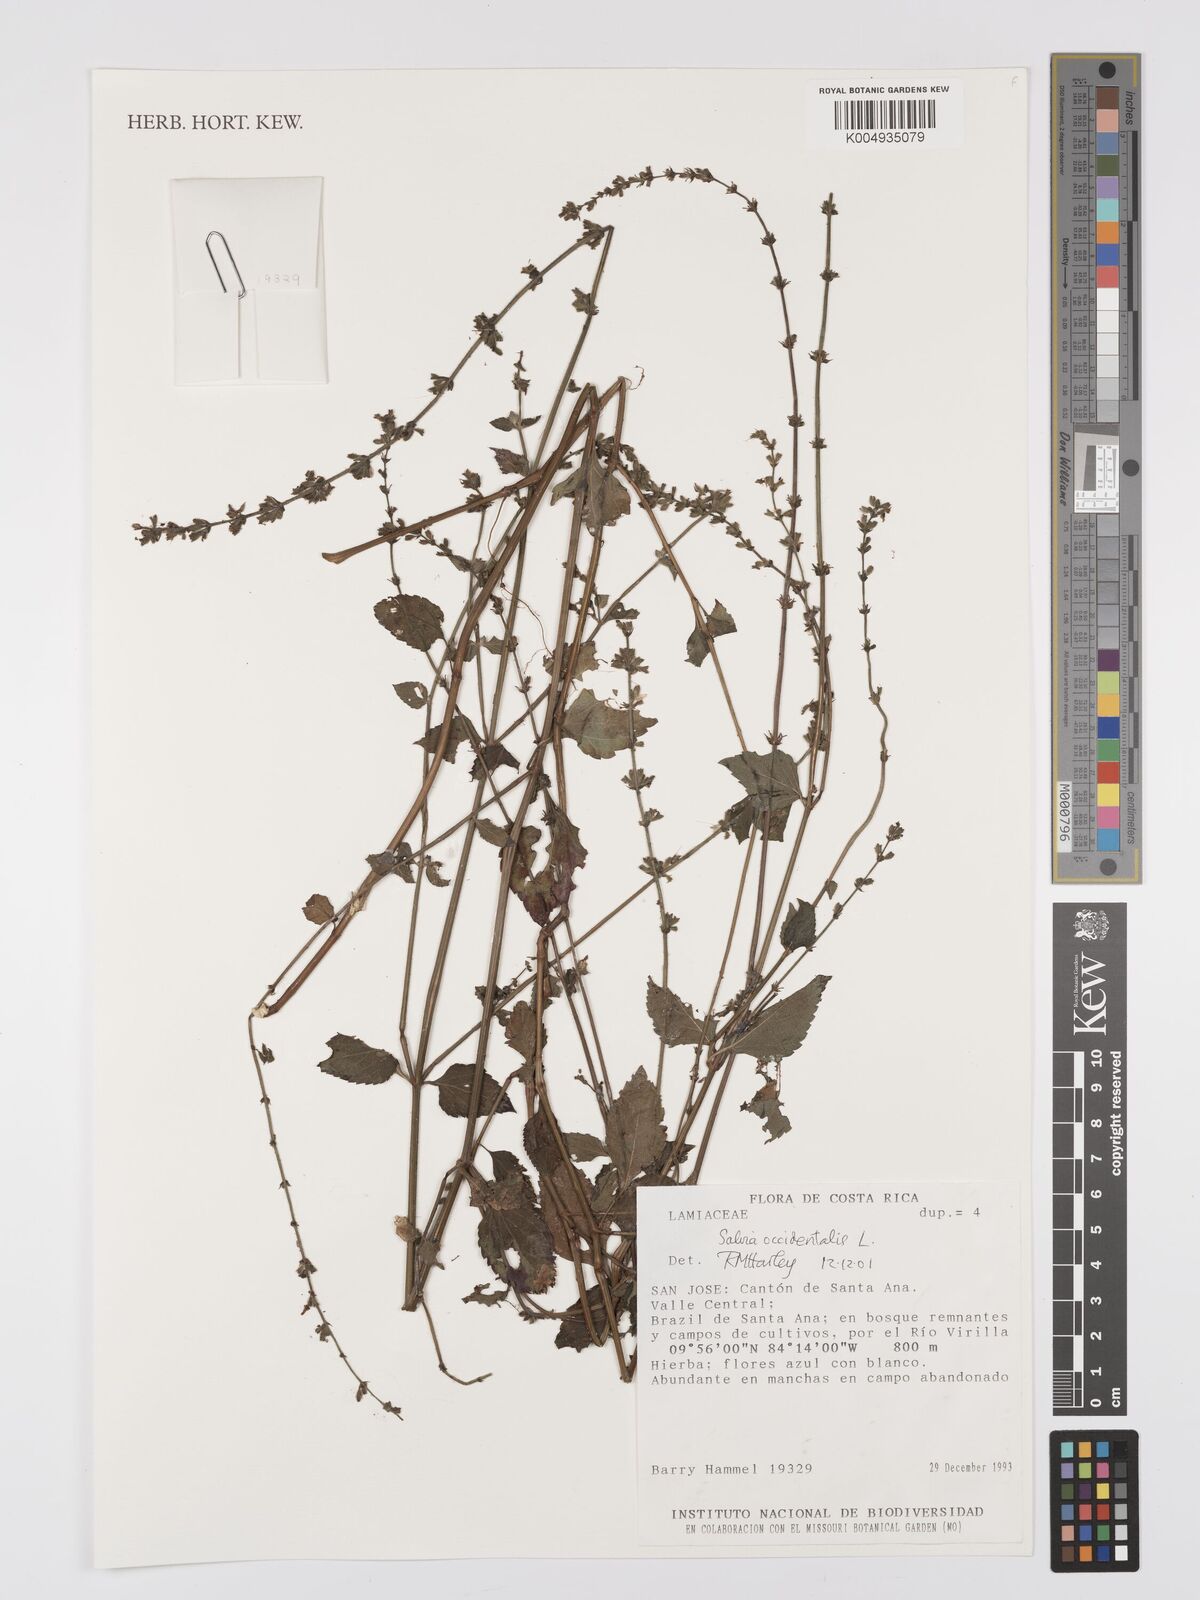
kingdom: Plantae
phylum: Tracheophyta
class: Magnoliopsida
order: Lamiales
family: Lamiaceae
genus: Salvia
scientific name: Salvia occidentalis
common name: West indian sage
